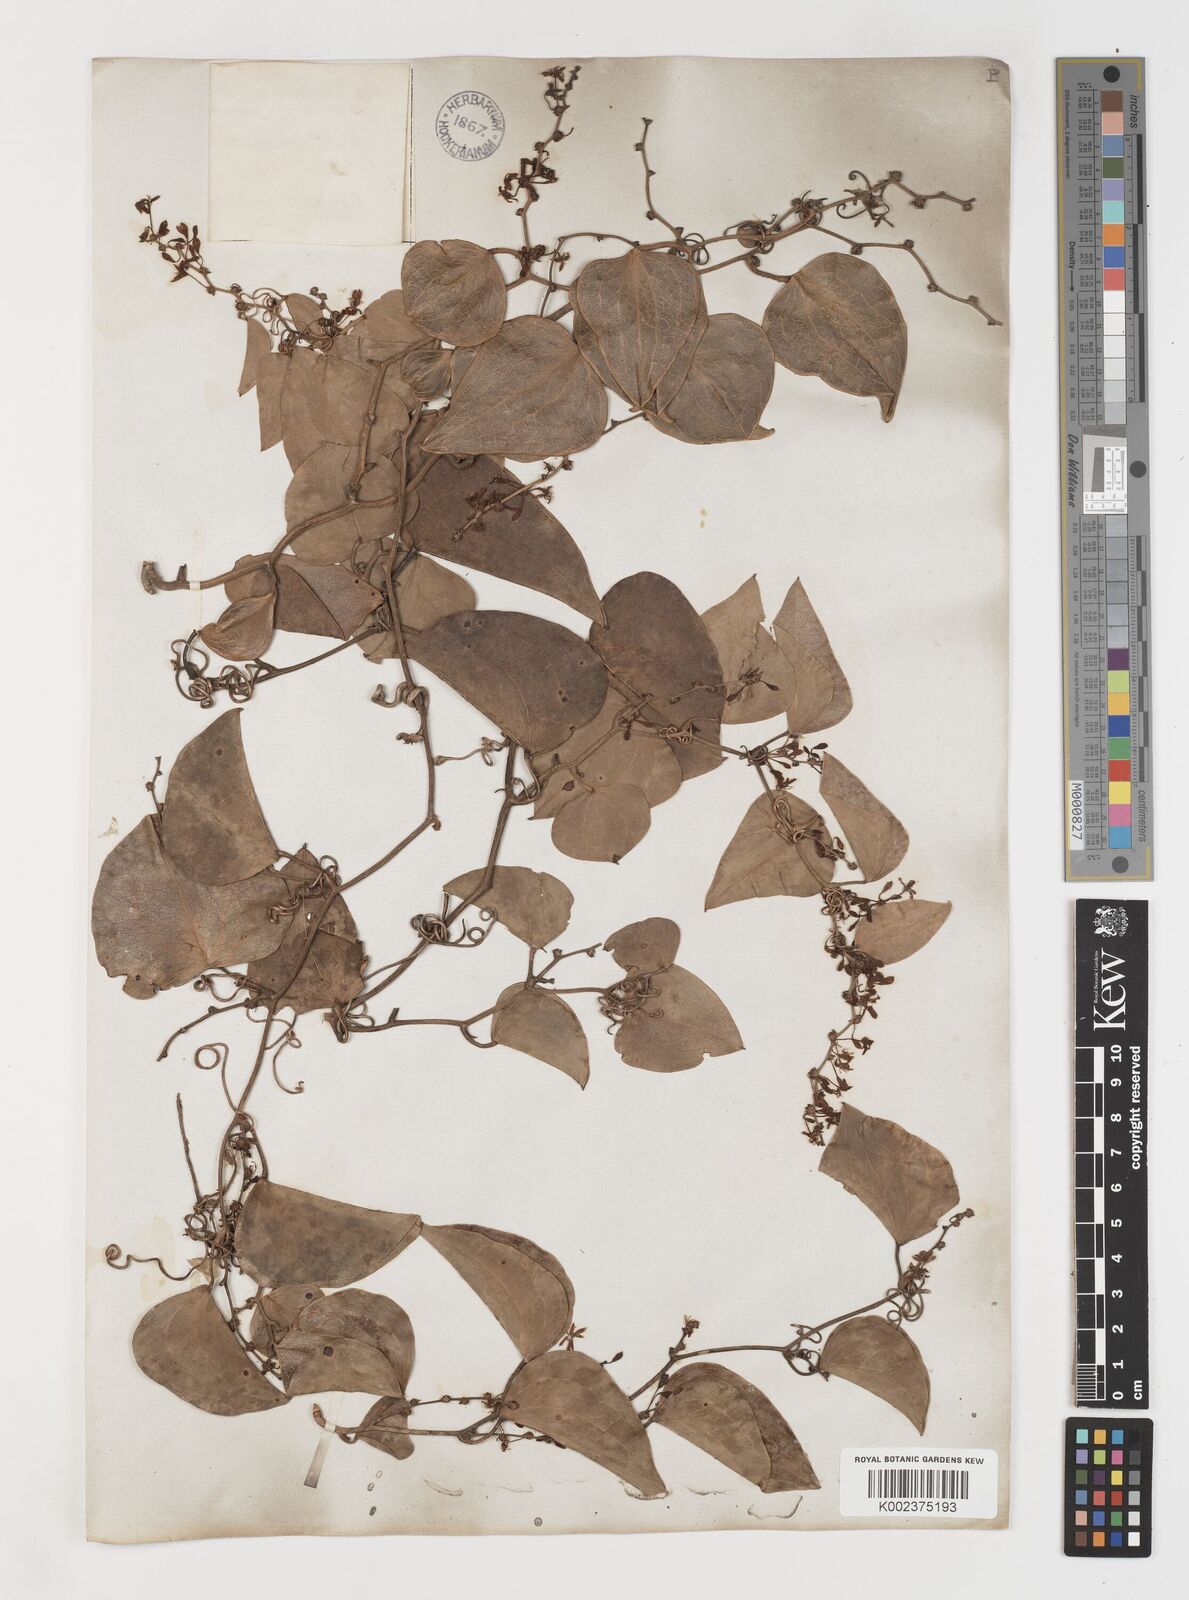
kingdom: Plantae
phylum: Tracheophyta
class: Liliopsida
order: Liliales
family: Smilacaceae
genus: Smilax
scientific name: Smilax aspera
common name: Common smilax
